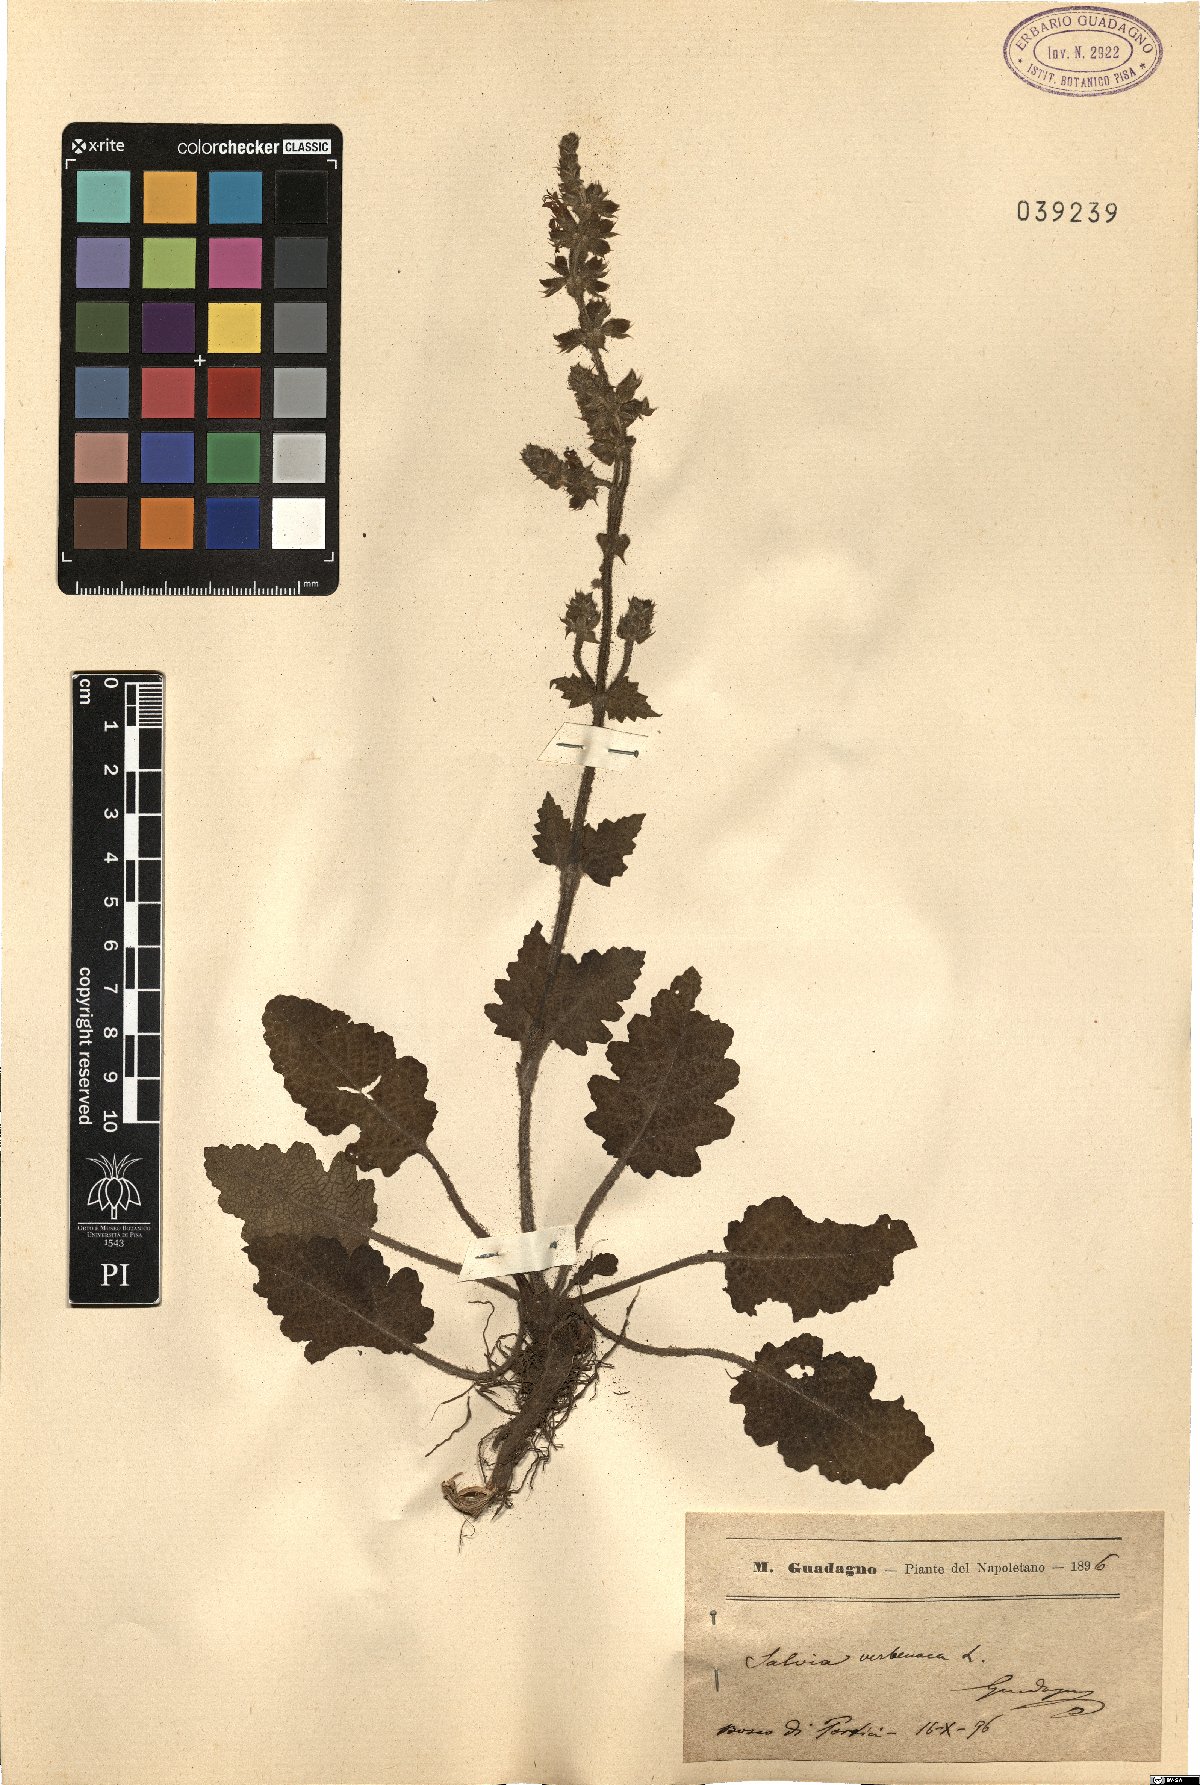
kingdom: Plantae
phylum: Tracheophyta
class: Magnoliopsida
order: Lamiales
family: Lamiaceae
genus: Salvia
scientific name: Salvia verbenaca
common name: Wild clary
